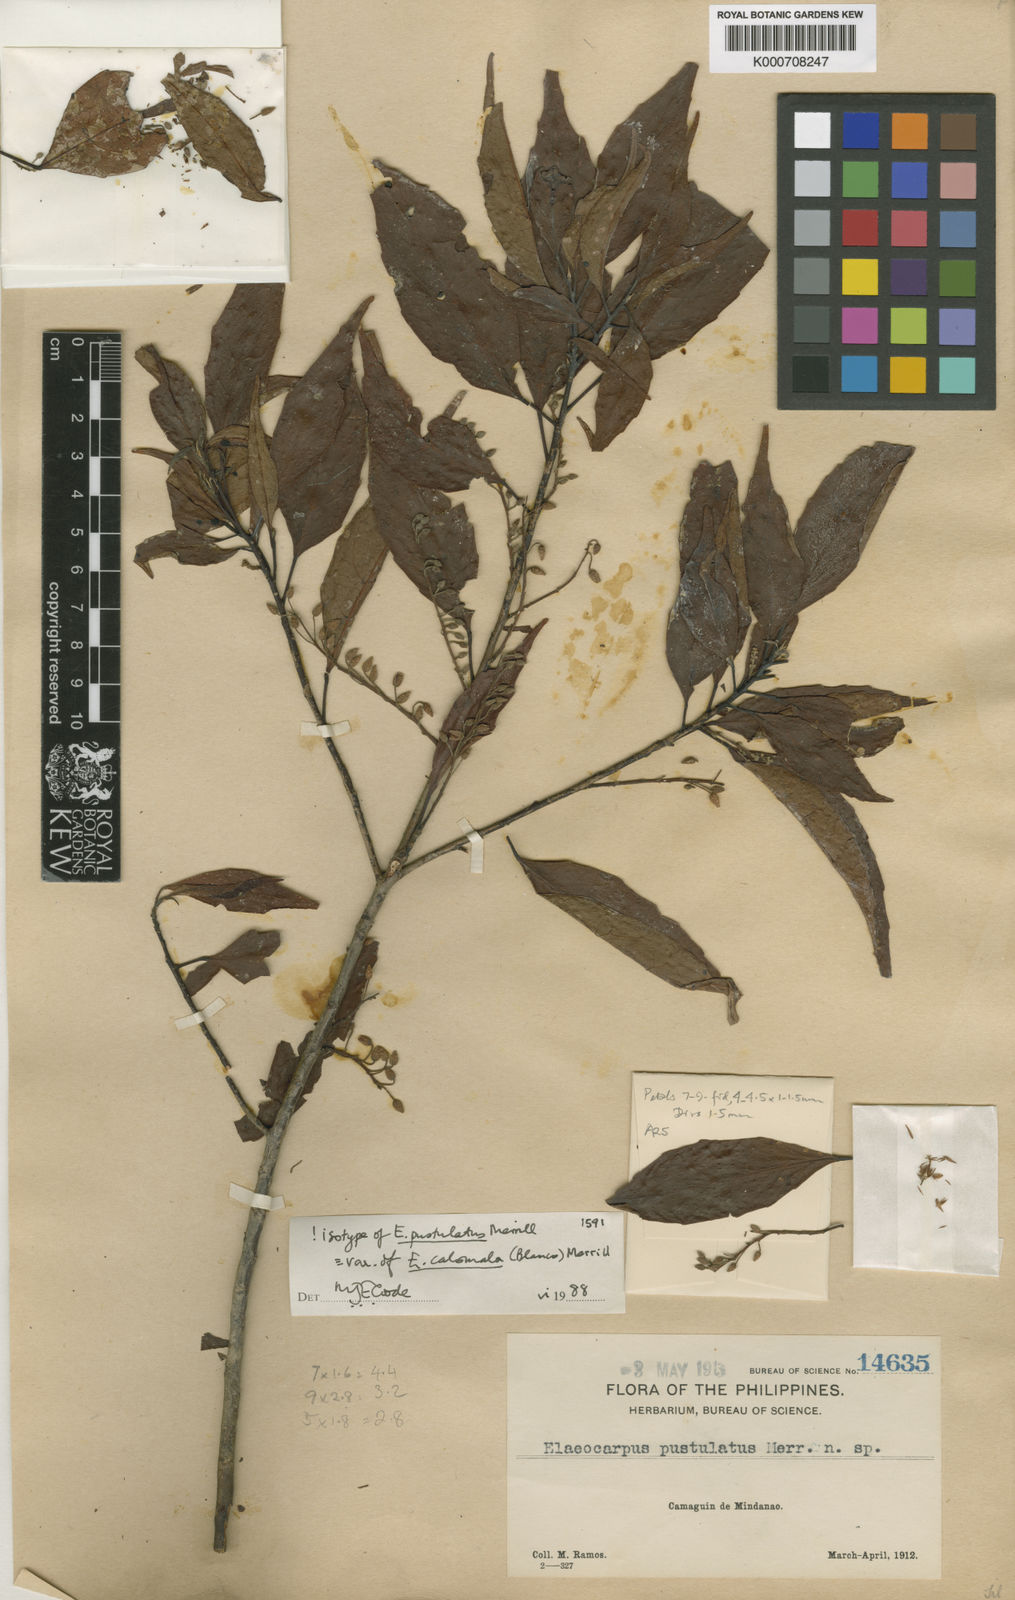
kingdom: Plantae
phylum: Tracheophyta
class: Magnoliopsida
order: Oxalidales
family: Elaeocarpaceae
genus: Elaeocarpus
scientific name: Elaeocarpus calomala
